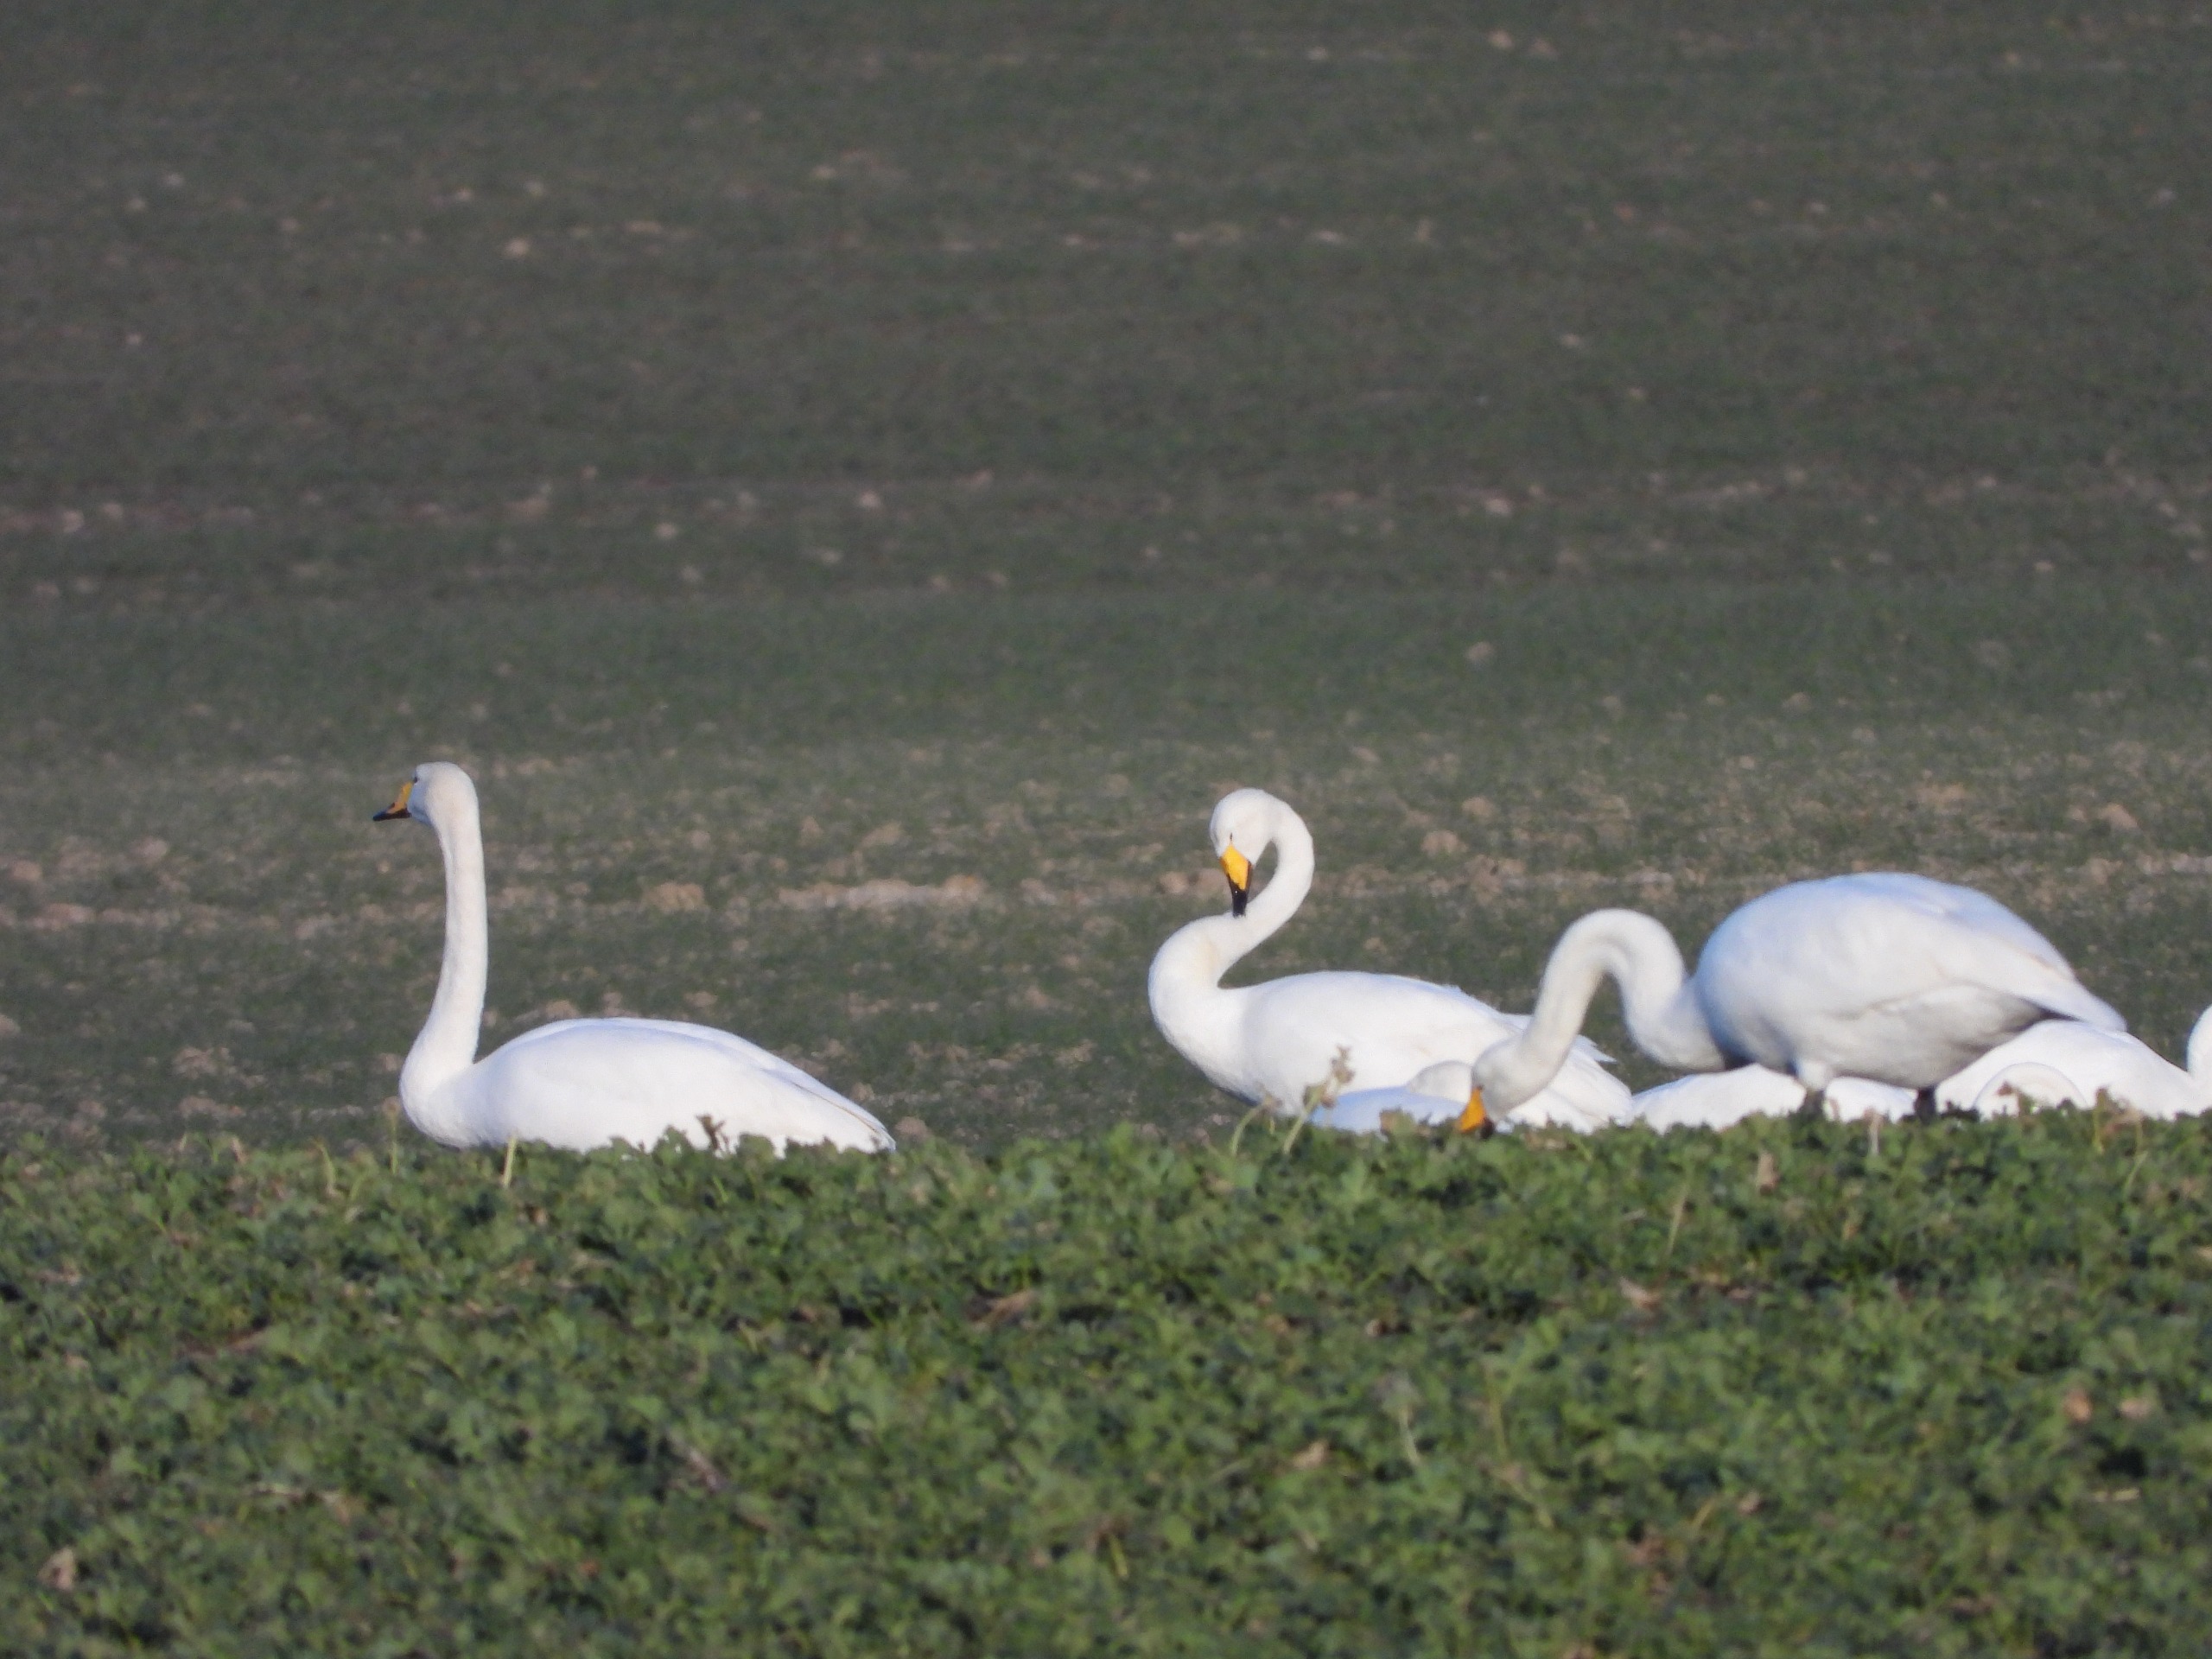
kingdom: Animalia
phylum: Chordata
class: Aves
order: Anseriformes
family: Anatidae
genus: Cygnus
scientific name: Cygnus cygnus
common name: Sangsvane
